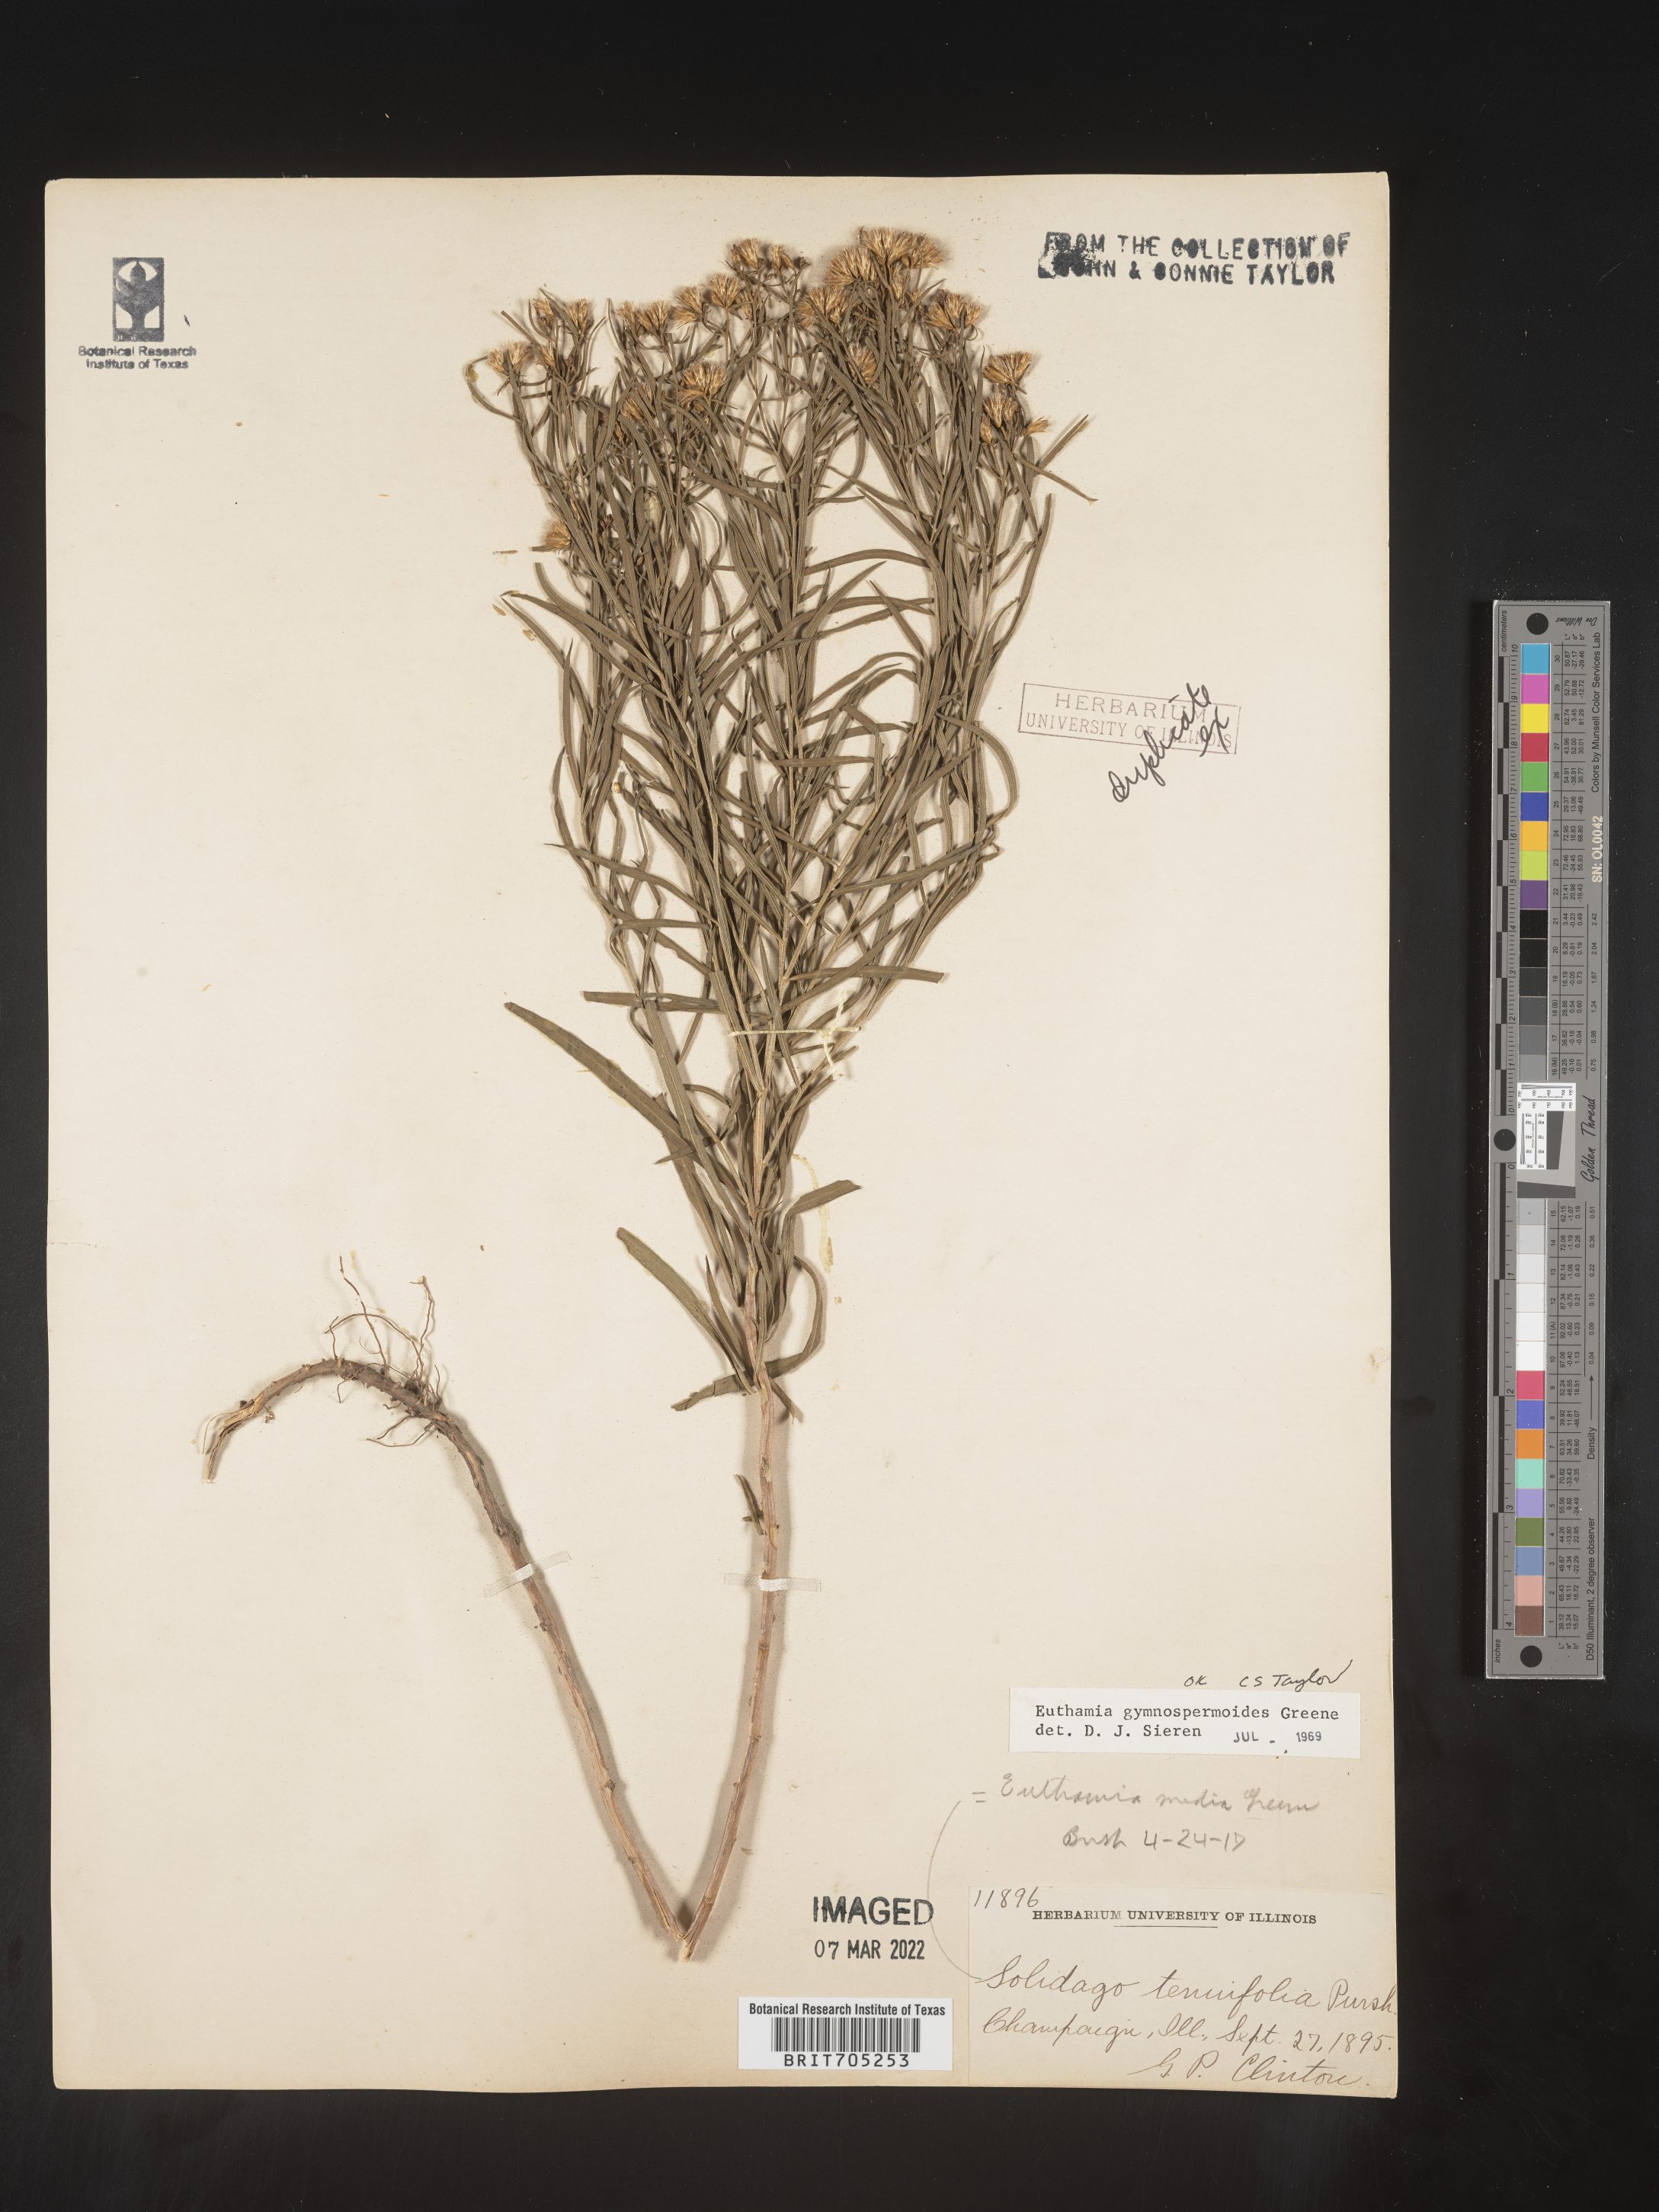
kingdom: Plantae
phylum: Tracheophyta
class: Magnoliopsida
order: Asterales
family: Asteraceae
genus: Euthamia
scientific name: Euthamia gymnospermoides
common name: Great plains goldentop
